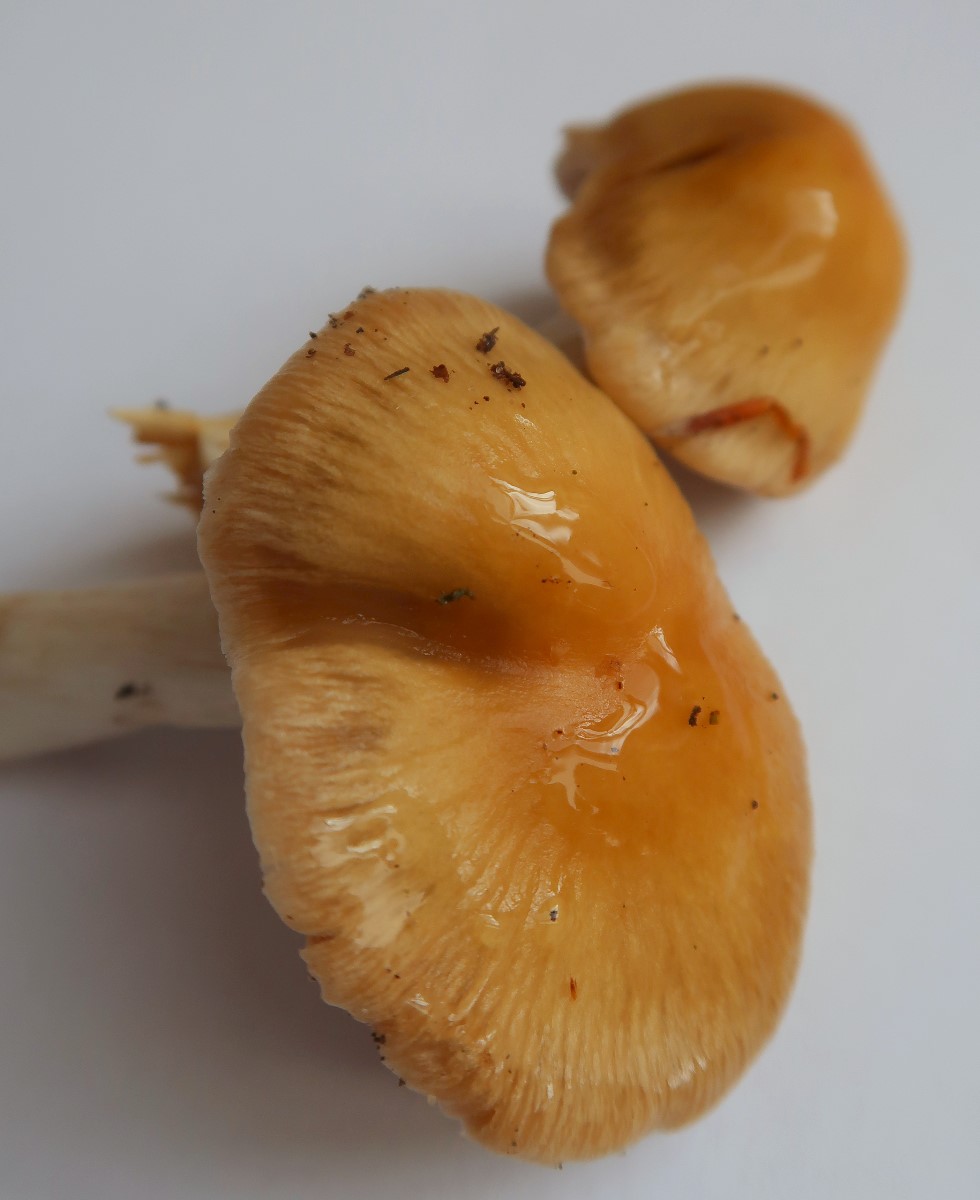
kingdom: Fungi
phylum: Basidiomycota
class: Agaricomycetes
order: Agaricales
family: Cortinariaceae
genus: Cortinarius
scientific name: Cortinarius
